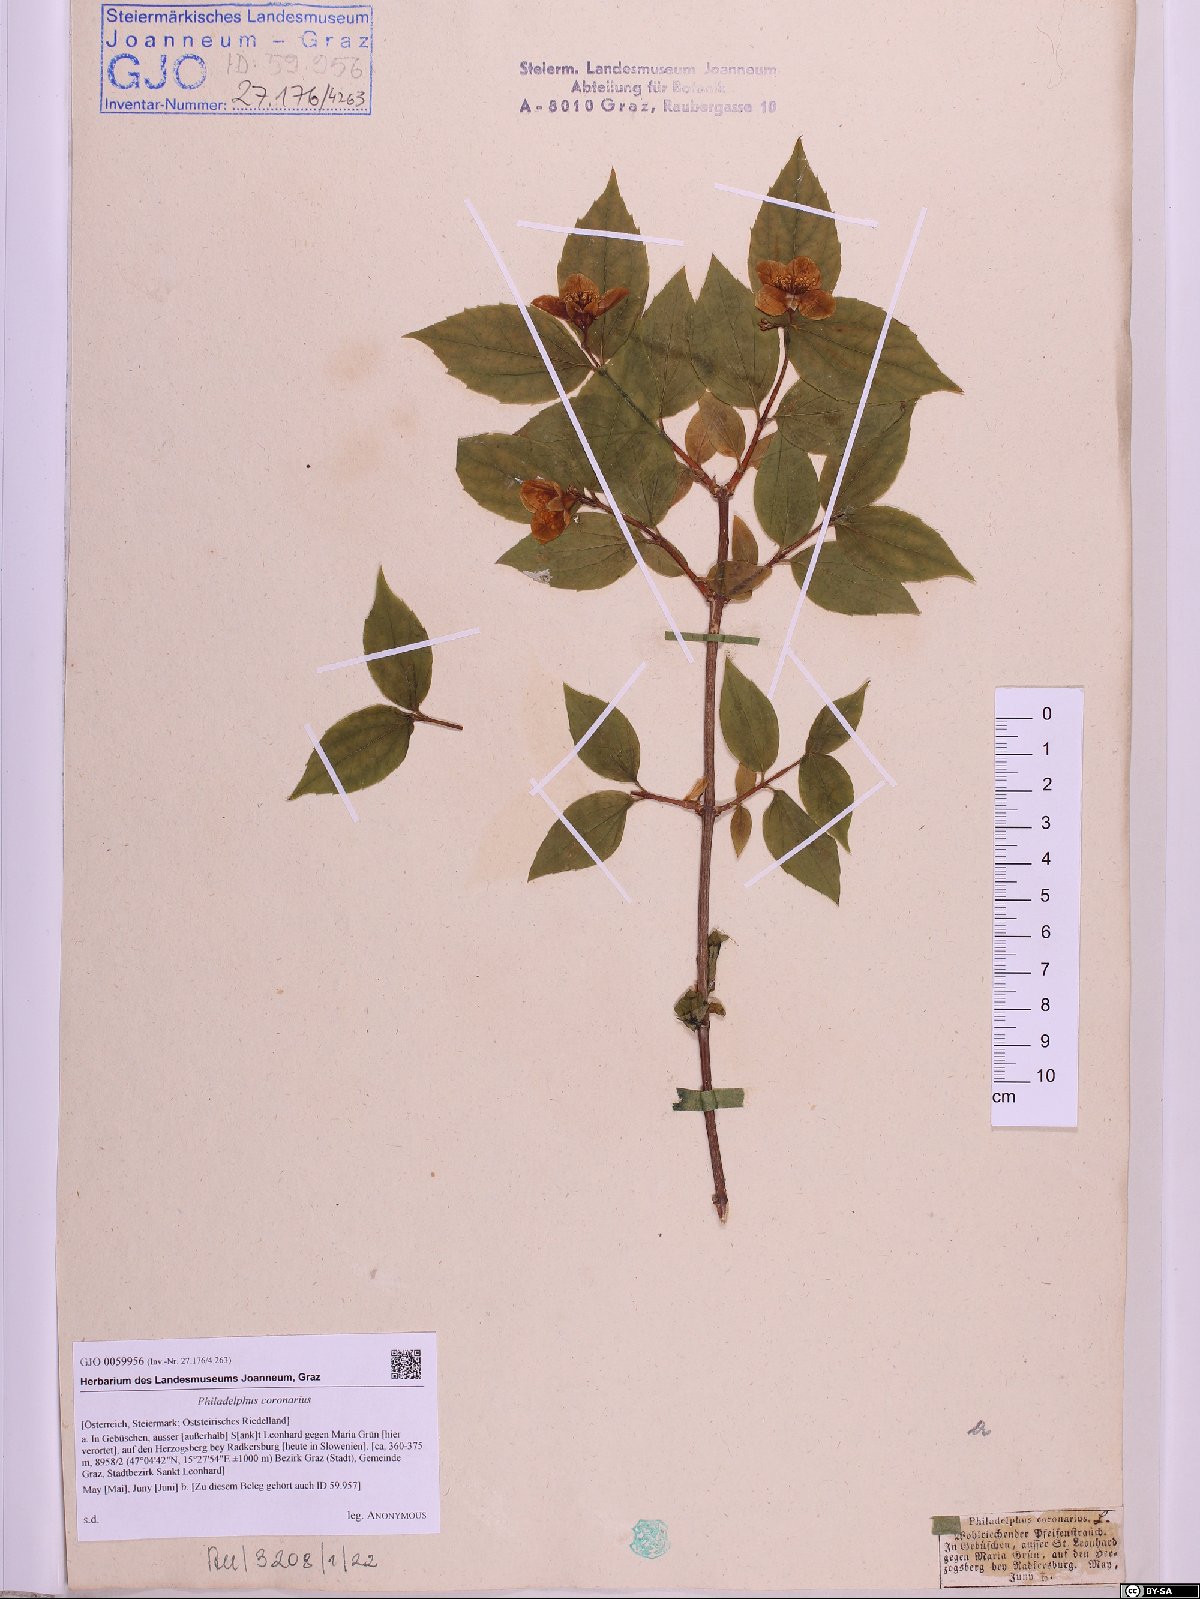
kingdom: Plantae
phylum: Tracheophyta
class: Magnoliopsida
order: Cornales
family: Hydrangeaceae
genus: Philadelphus
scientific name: Philadelphus coronarius
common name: Mock orange
